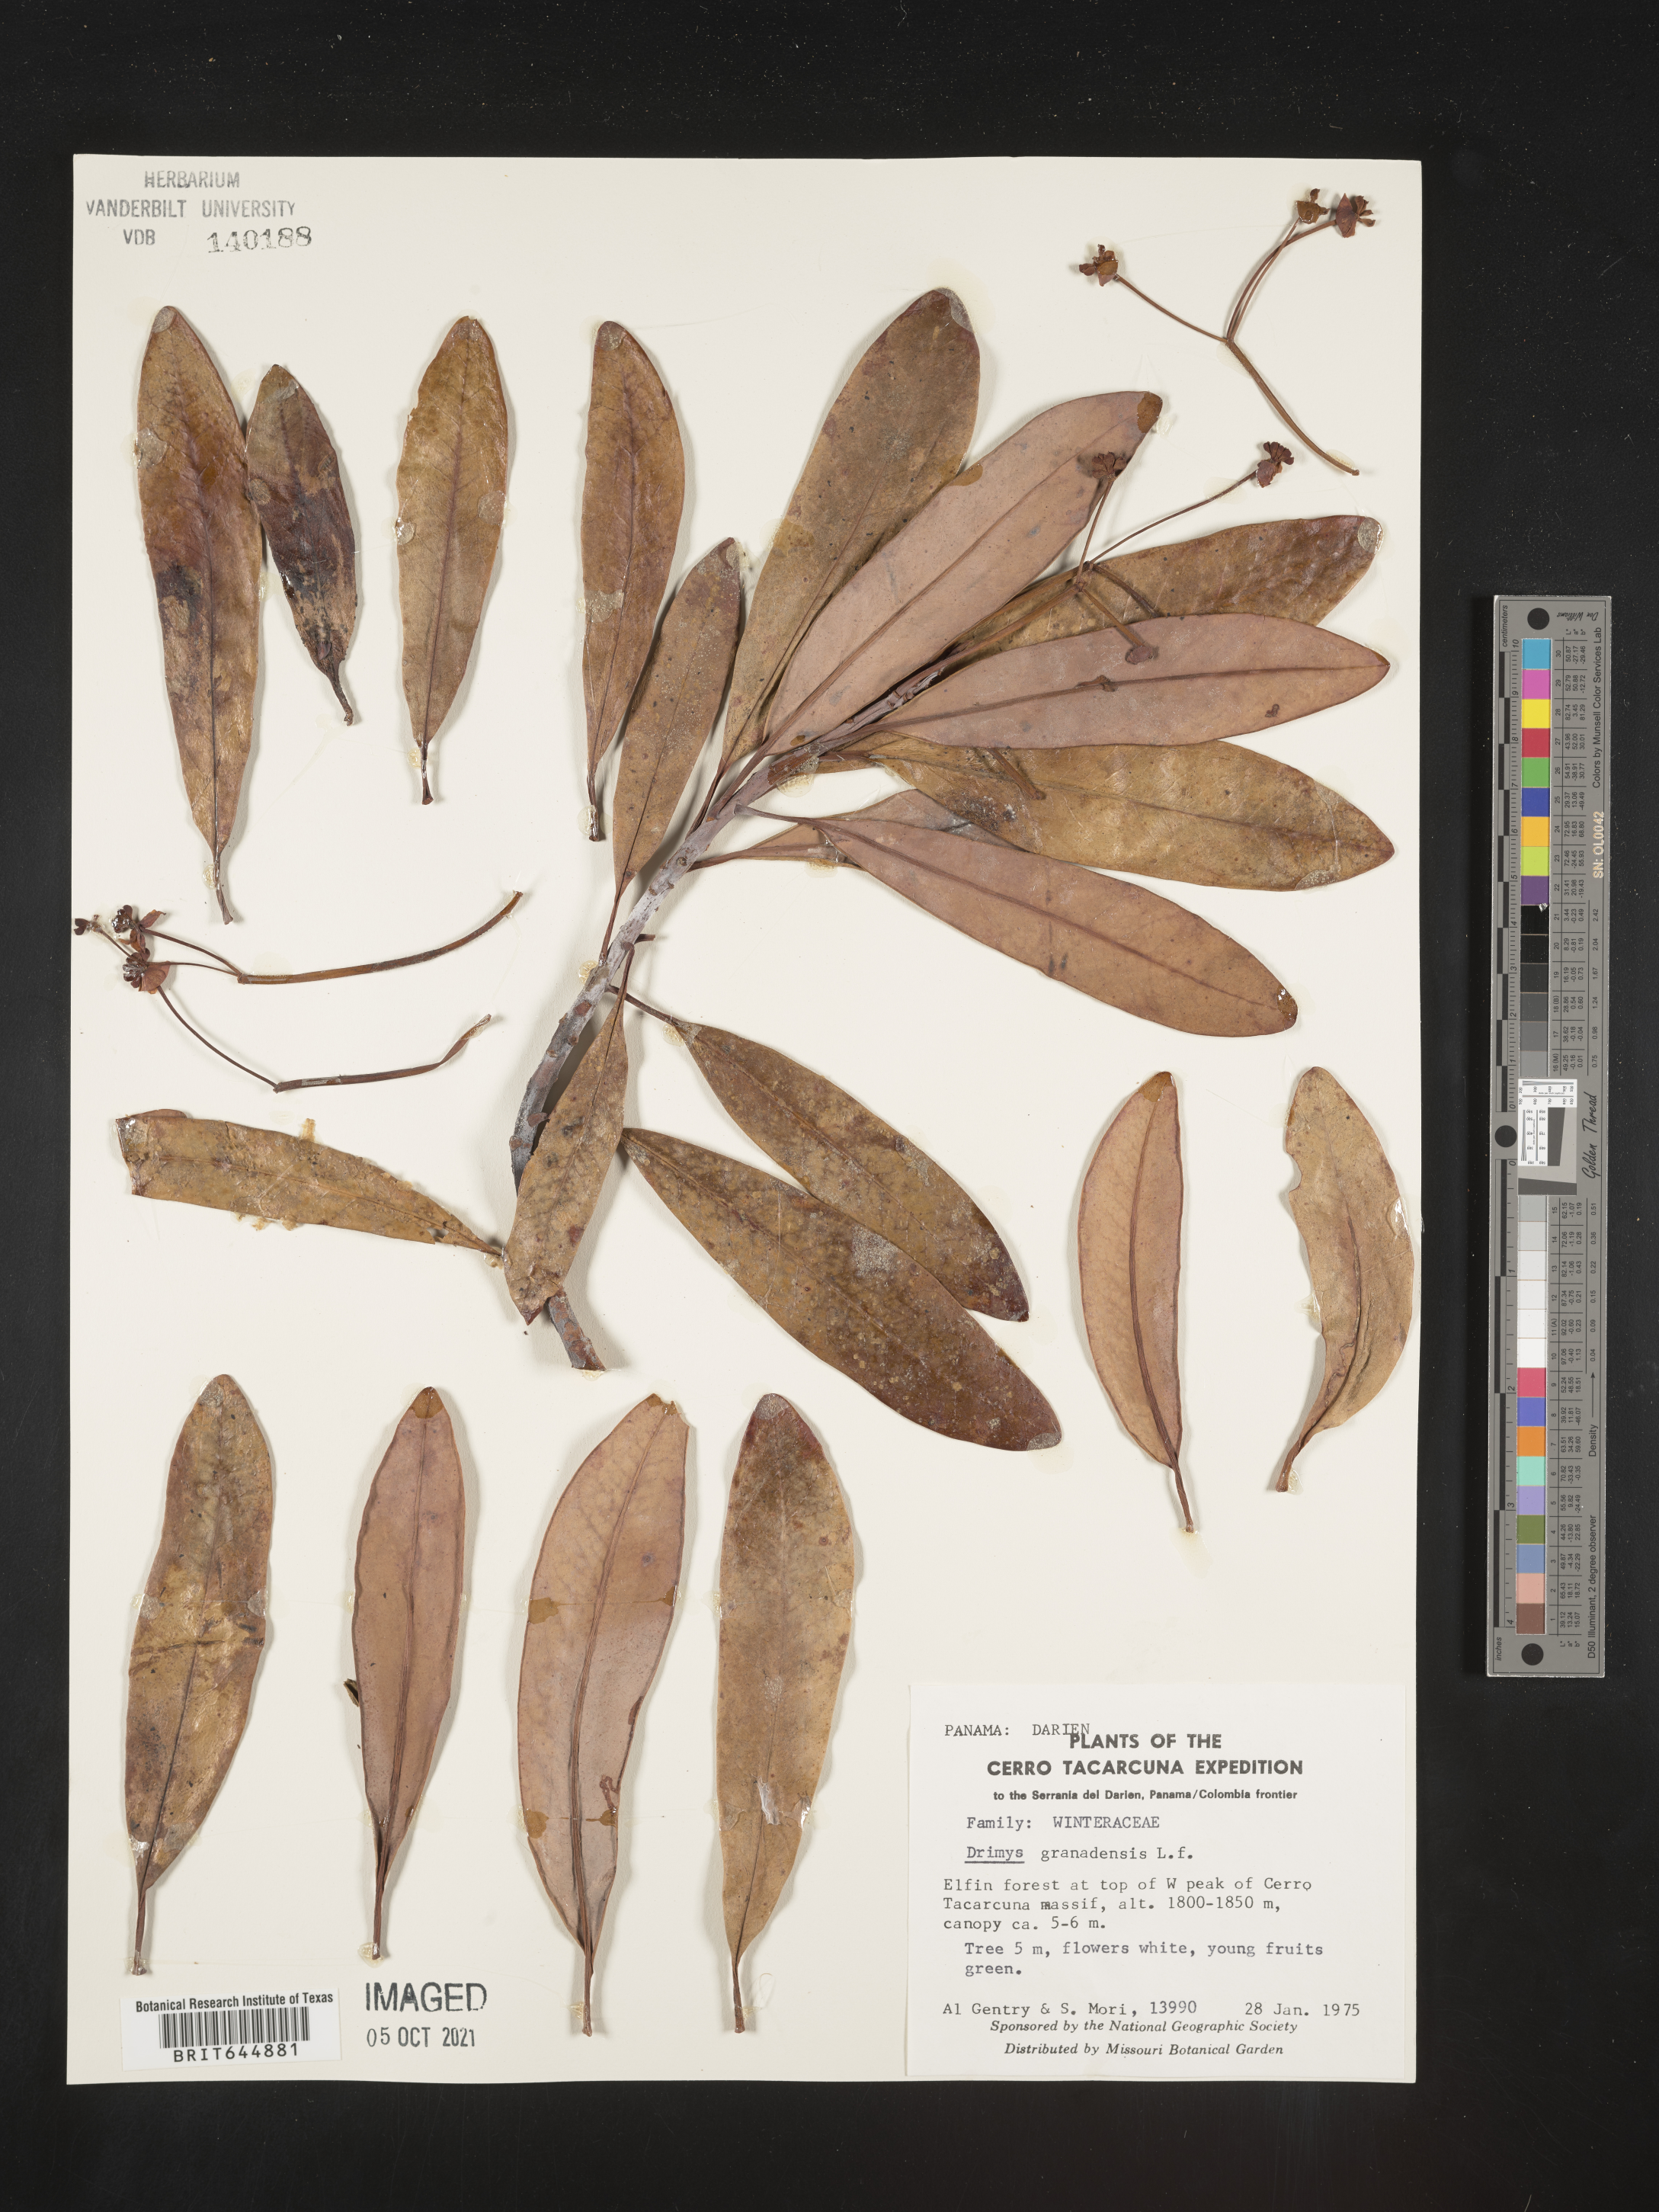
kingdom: Plantae
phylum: Tracheophyta
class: Magnoliopsida
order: Canellales
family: Winteraceae
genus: Drimys
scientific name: Drimys
